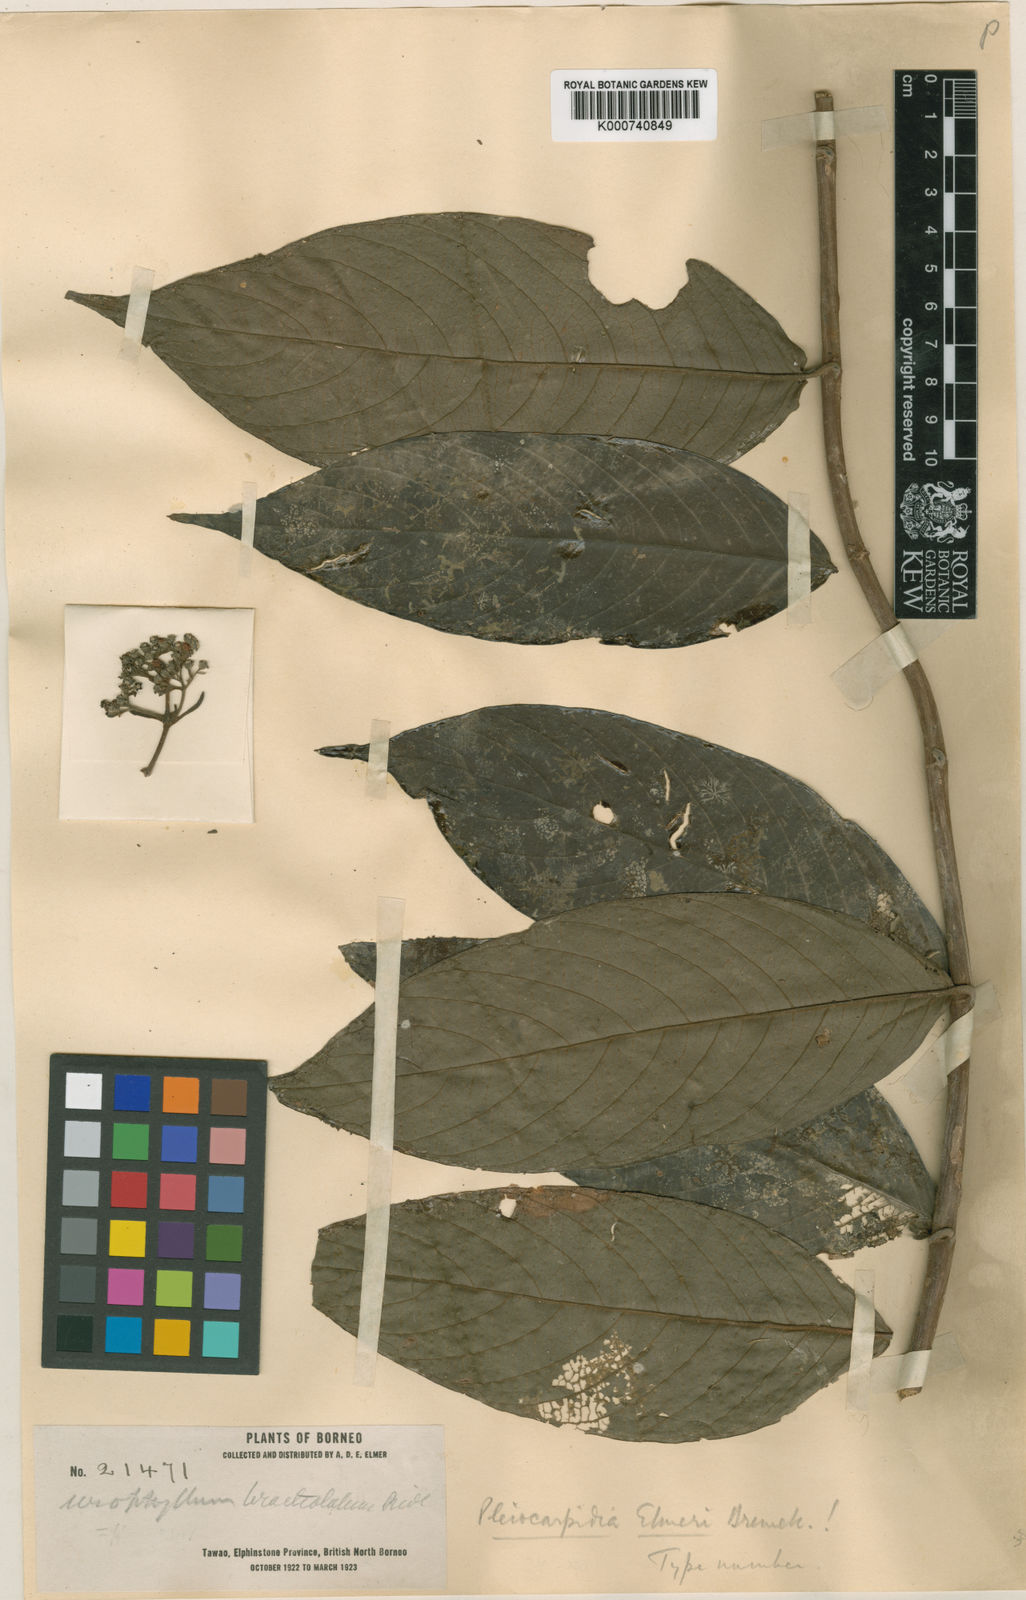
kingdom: Plantae
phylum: Tracheophyta
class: Magnoliopsida
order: Gentianales
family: Rubiaceae
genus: Urophyllum
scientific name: Urophyllum pilosum
